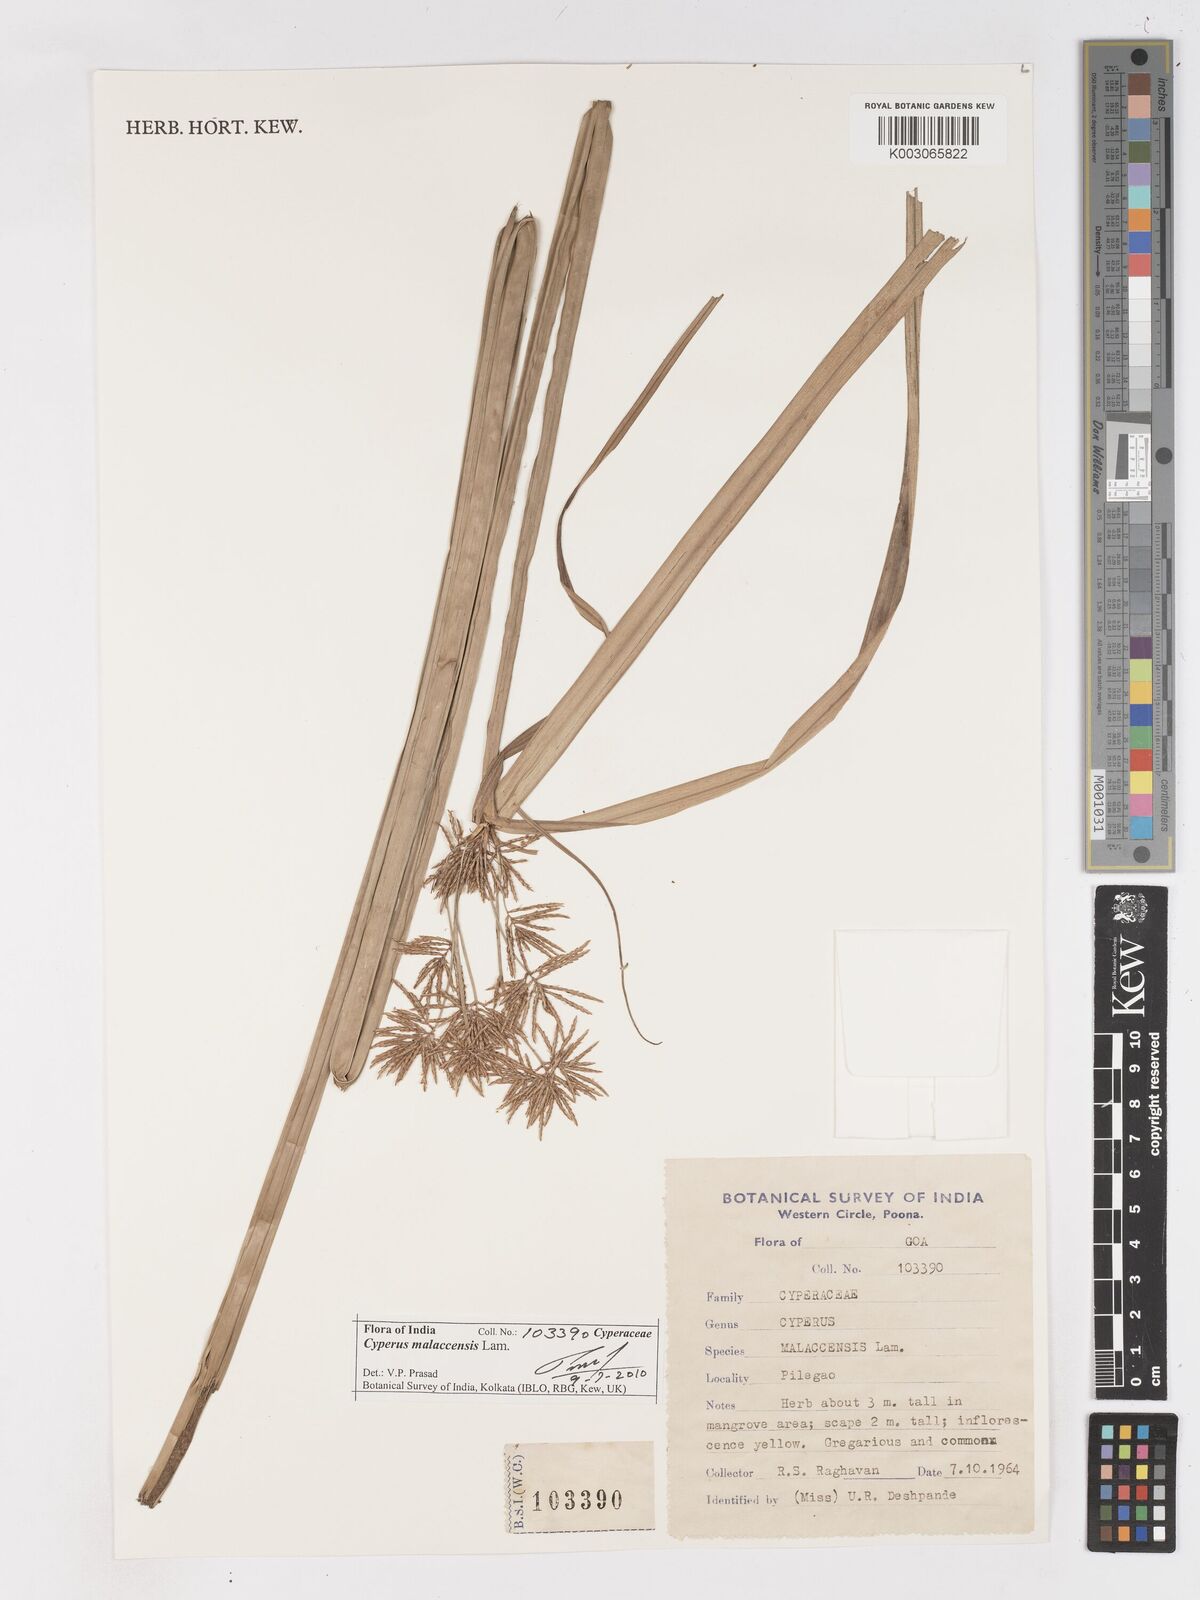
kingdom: Plantae
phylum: Tracheophyta
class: Liliopsida
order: Poales
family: Cyperaceae
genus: Cyperus
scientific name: Cyperus malaccensis
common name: Shichito matgrass
